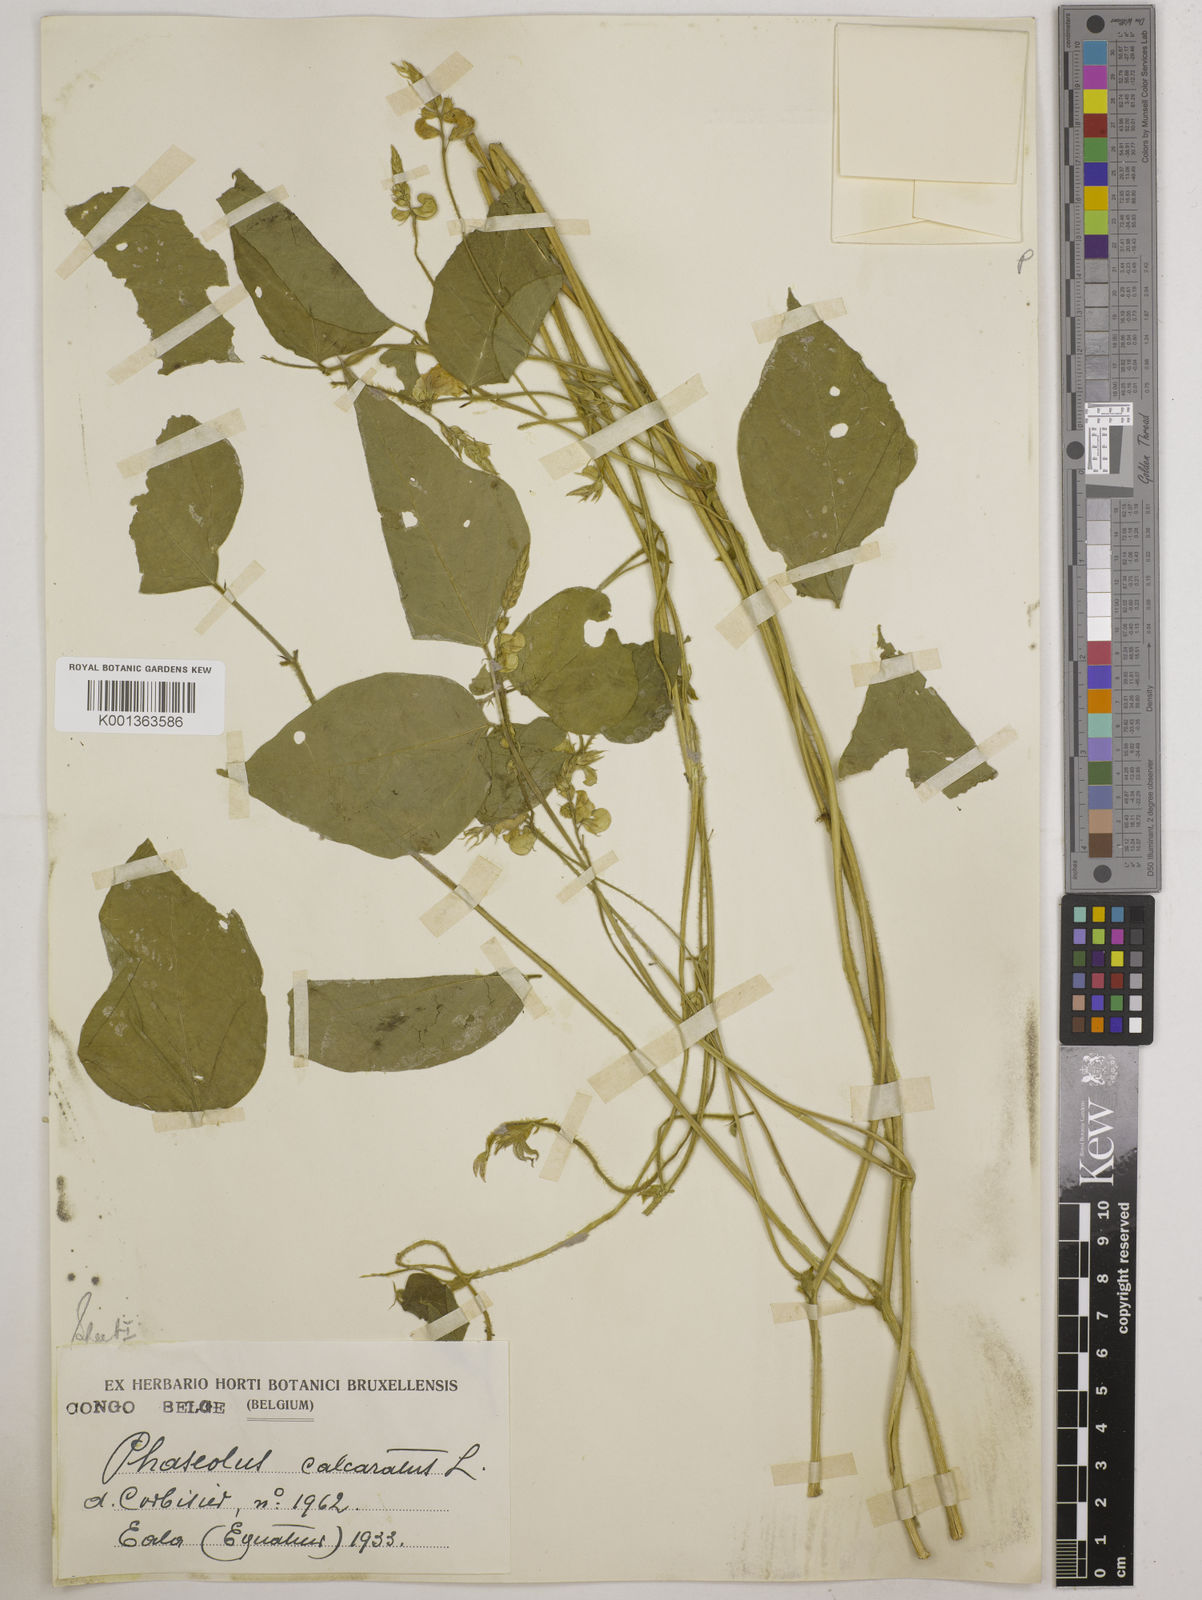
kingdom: Plantae
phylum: Tracheophyta
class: Magnoliopsida
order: Fabales
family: Fabaceae
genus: Vigna
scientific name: Vigna umbellata
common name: Oriental-bean
